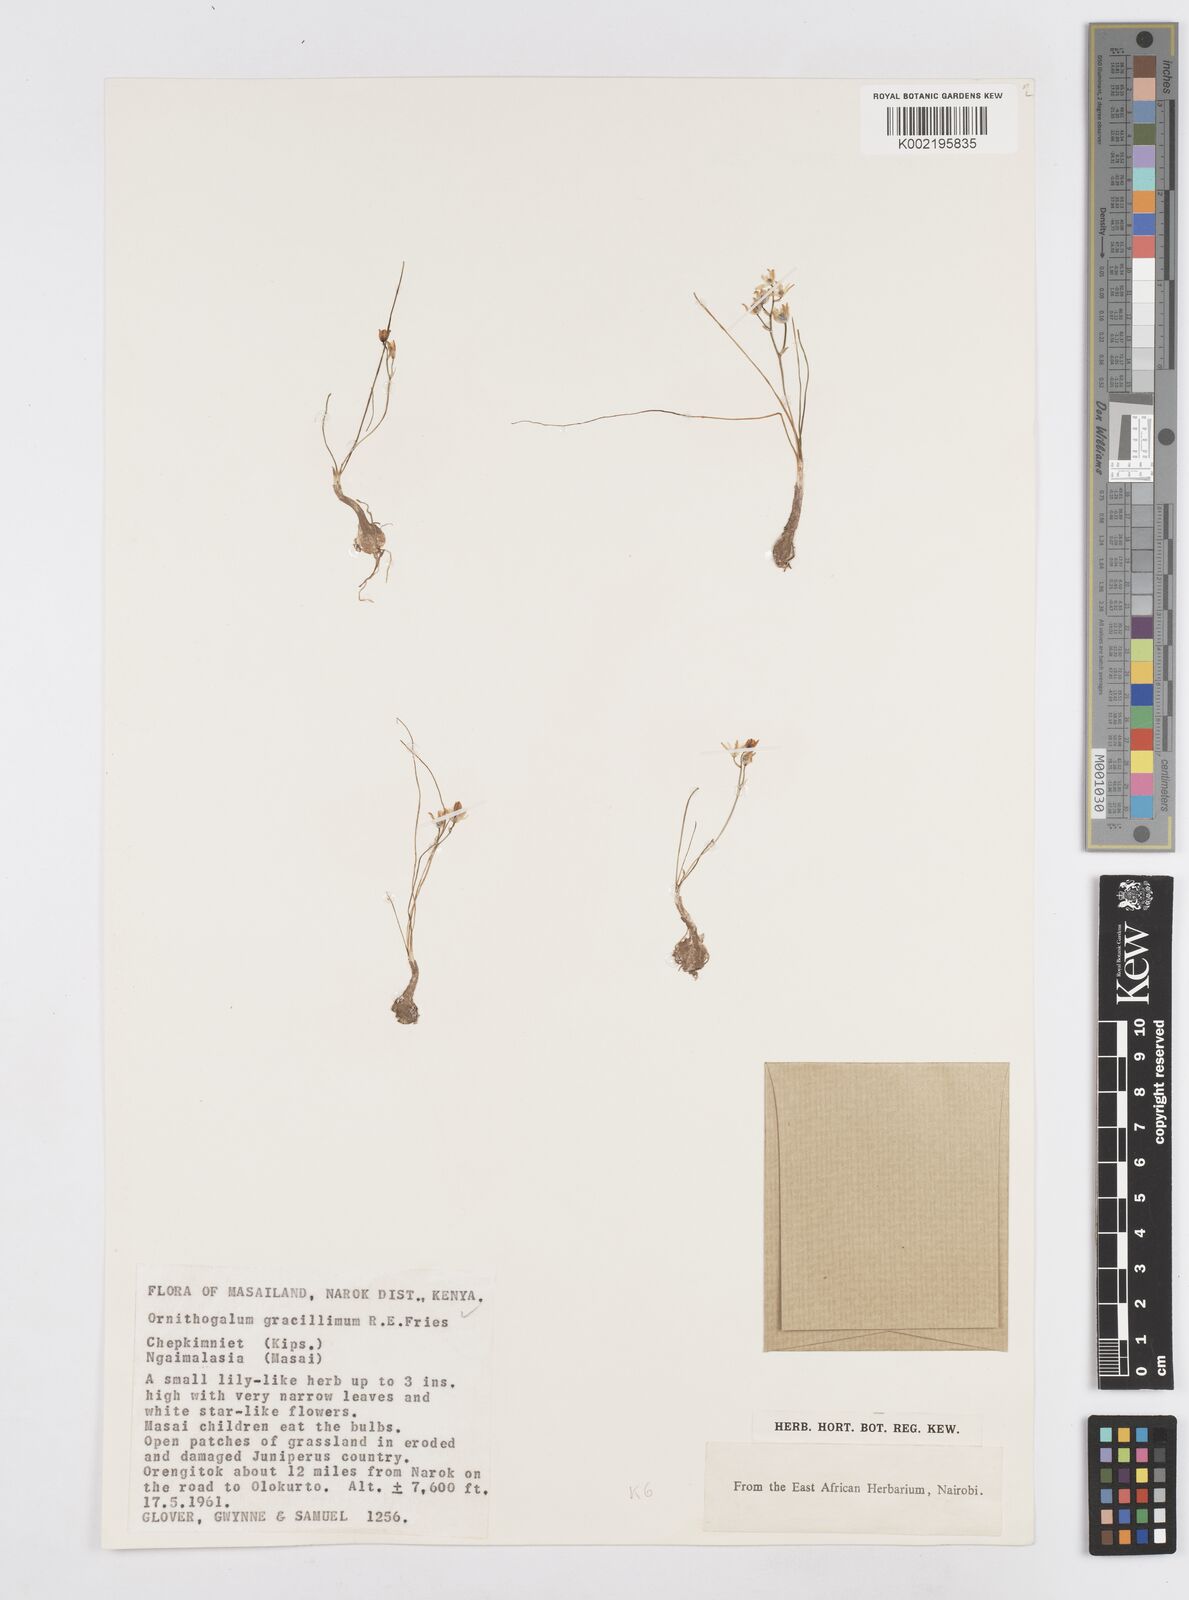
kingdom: Plantae
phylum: Tracheophyta
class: Liliopsida
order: Asparagales
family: Asparagaceae
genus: Ornithogalum
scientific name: Ornithogalum gracillimum
